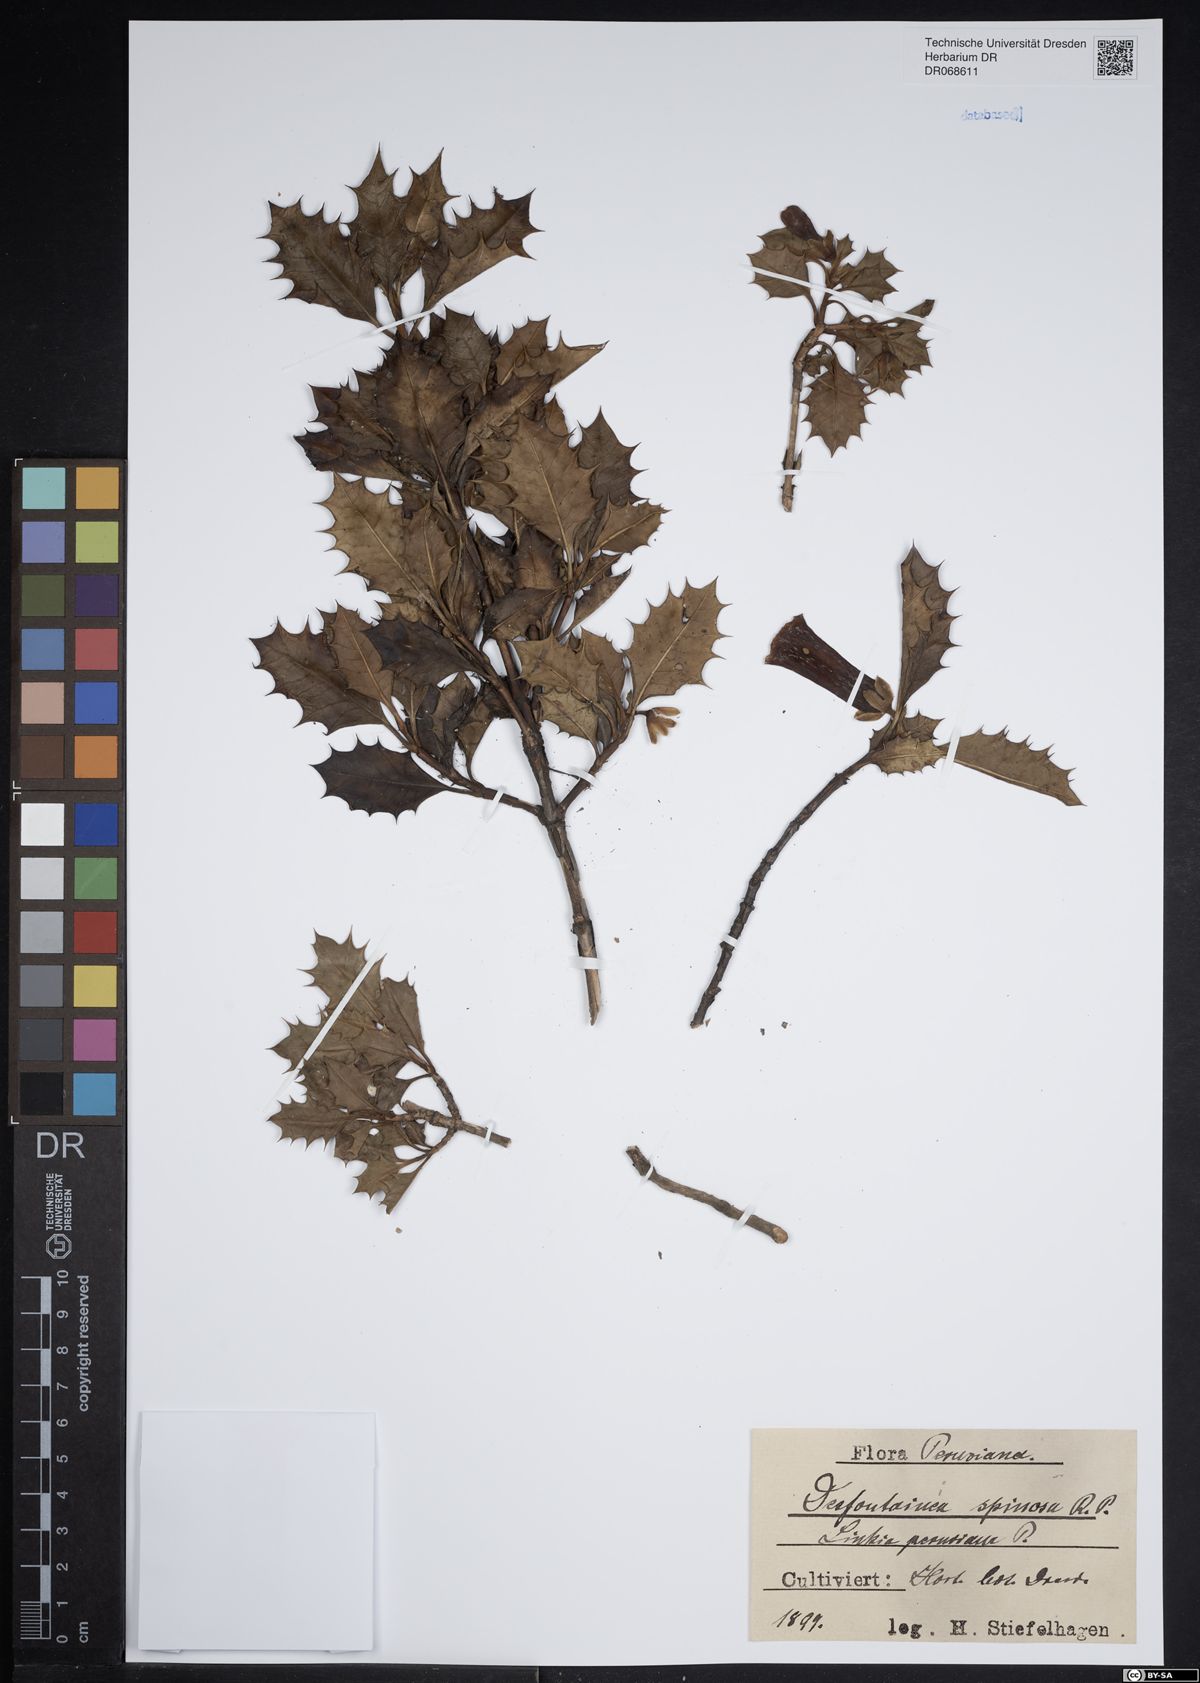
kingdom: Plantae
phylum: Tracheophyta
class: Magnoliopsida
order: Bruniales
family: Columelliaceae
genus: Desfontainia
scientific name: Desfontainia spinosa
